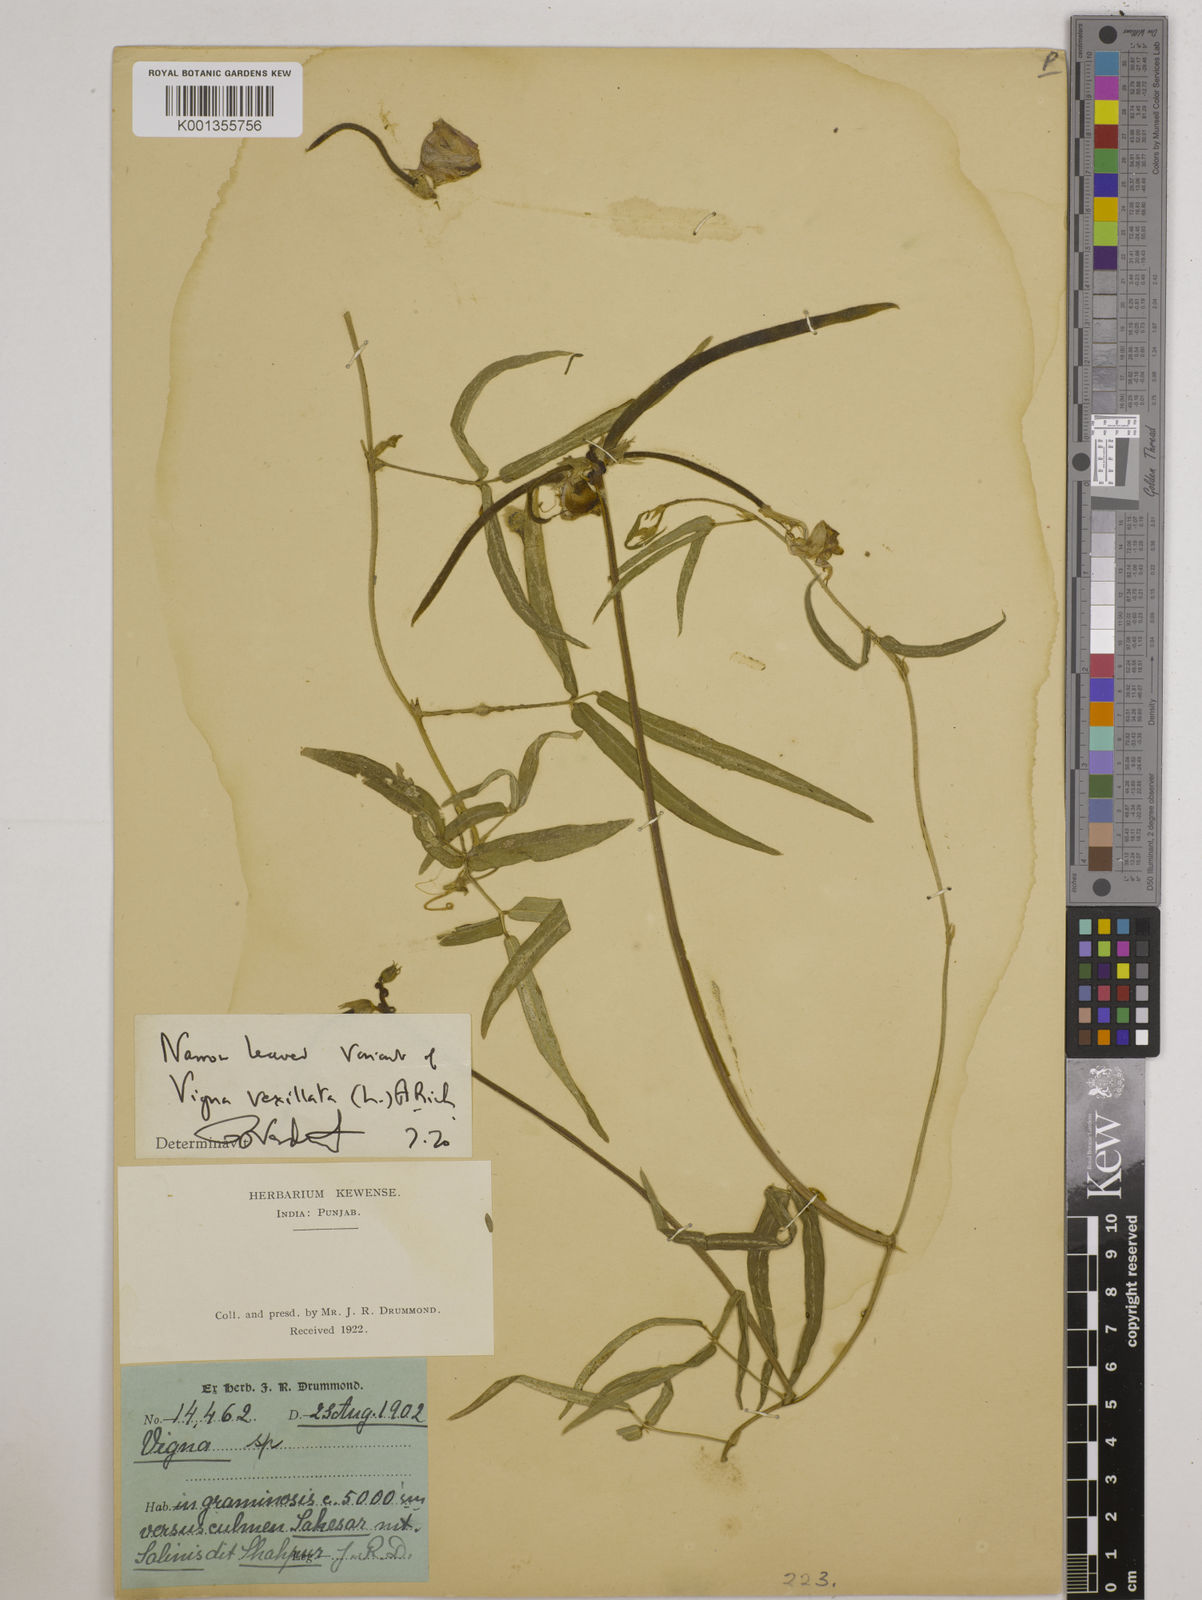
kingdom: Plantae
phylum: Tracheophyta
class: Magnoliopsida
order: Fabales
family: Fabaceae
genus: Vigna
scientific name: Vigna vexillata
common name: Zombi pea
